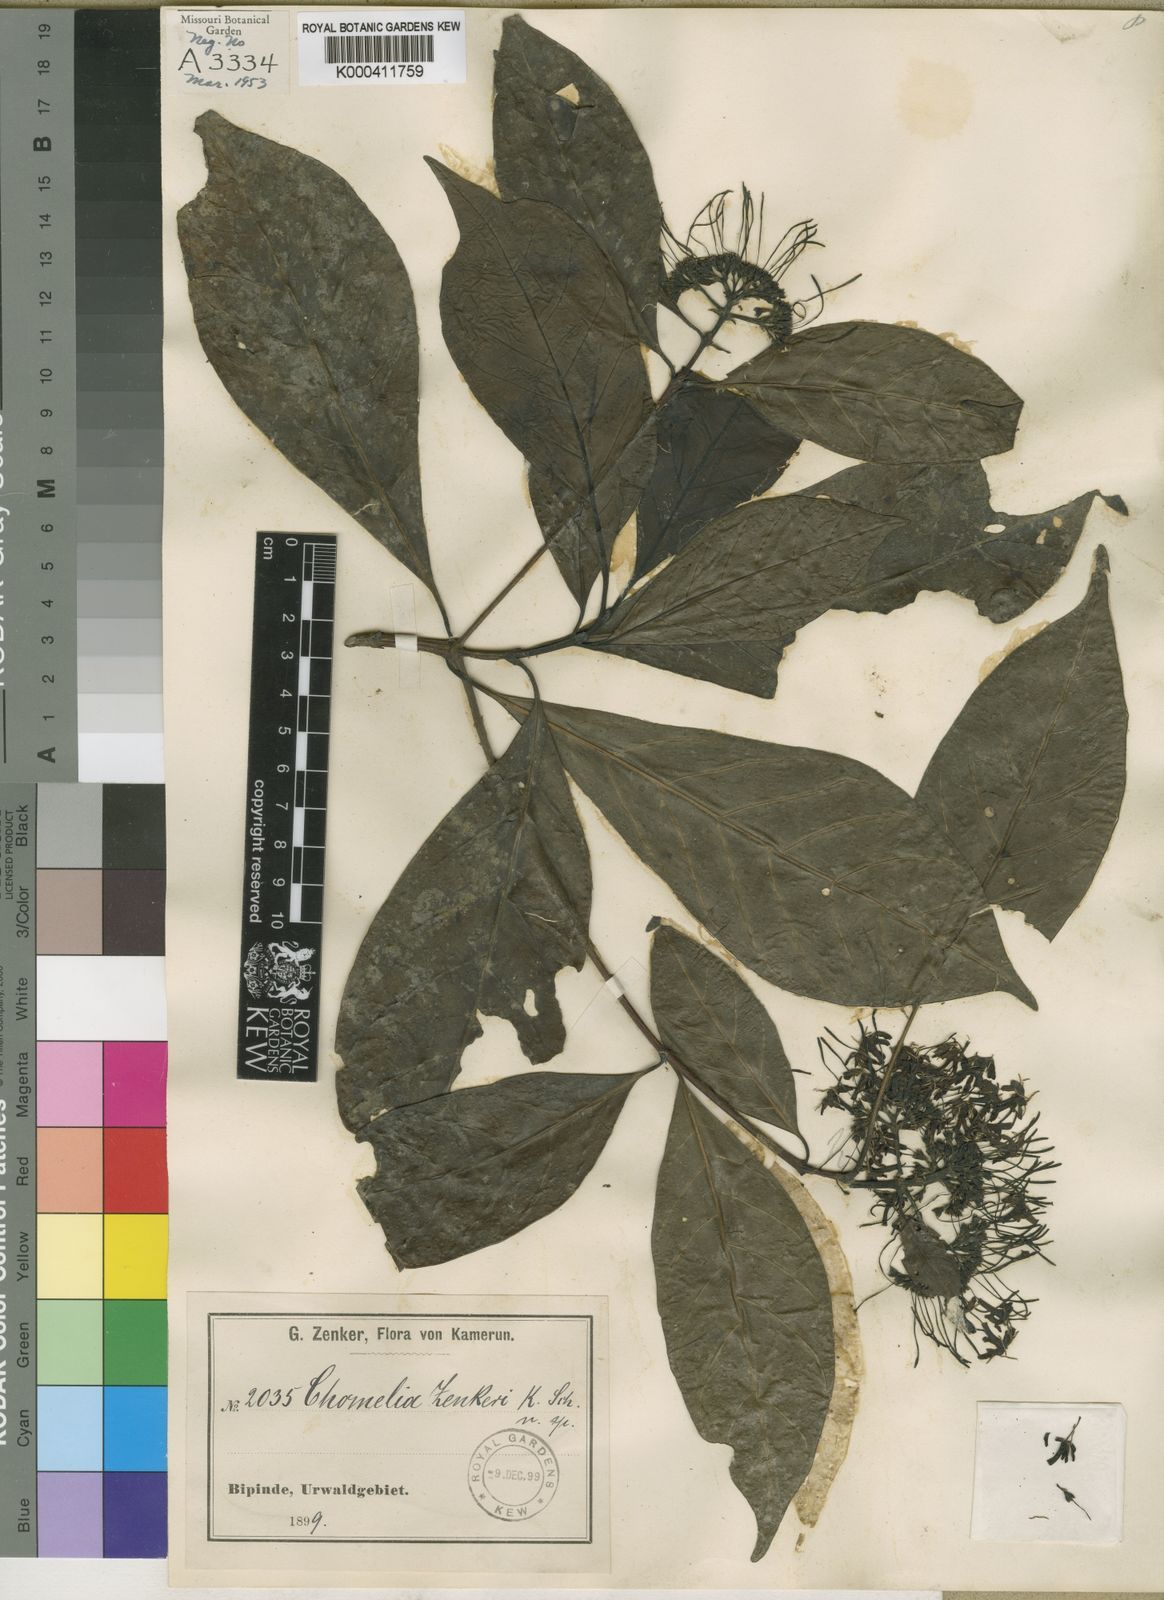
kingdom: Plantae
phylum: Tracheophyta
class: Magnoliopsida
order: Gentianales
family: Rubiaceae
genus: Tarenna
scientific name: Tarenna conferta
